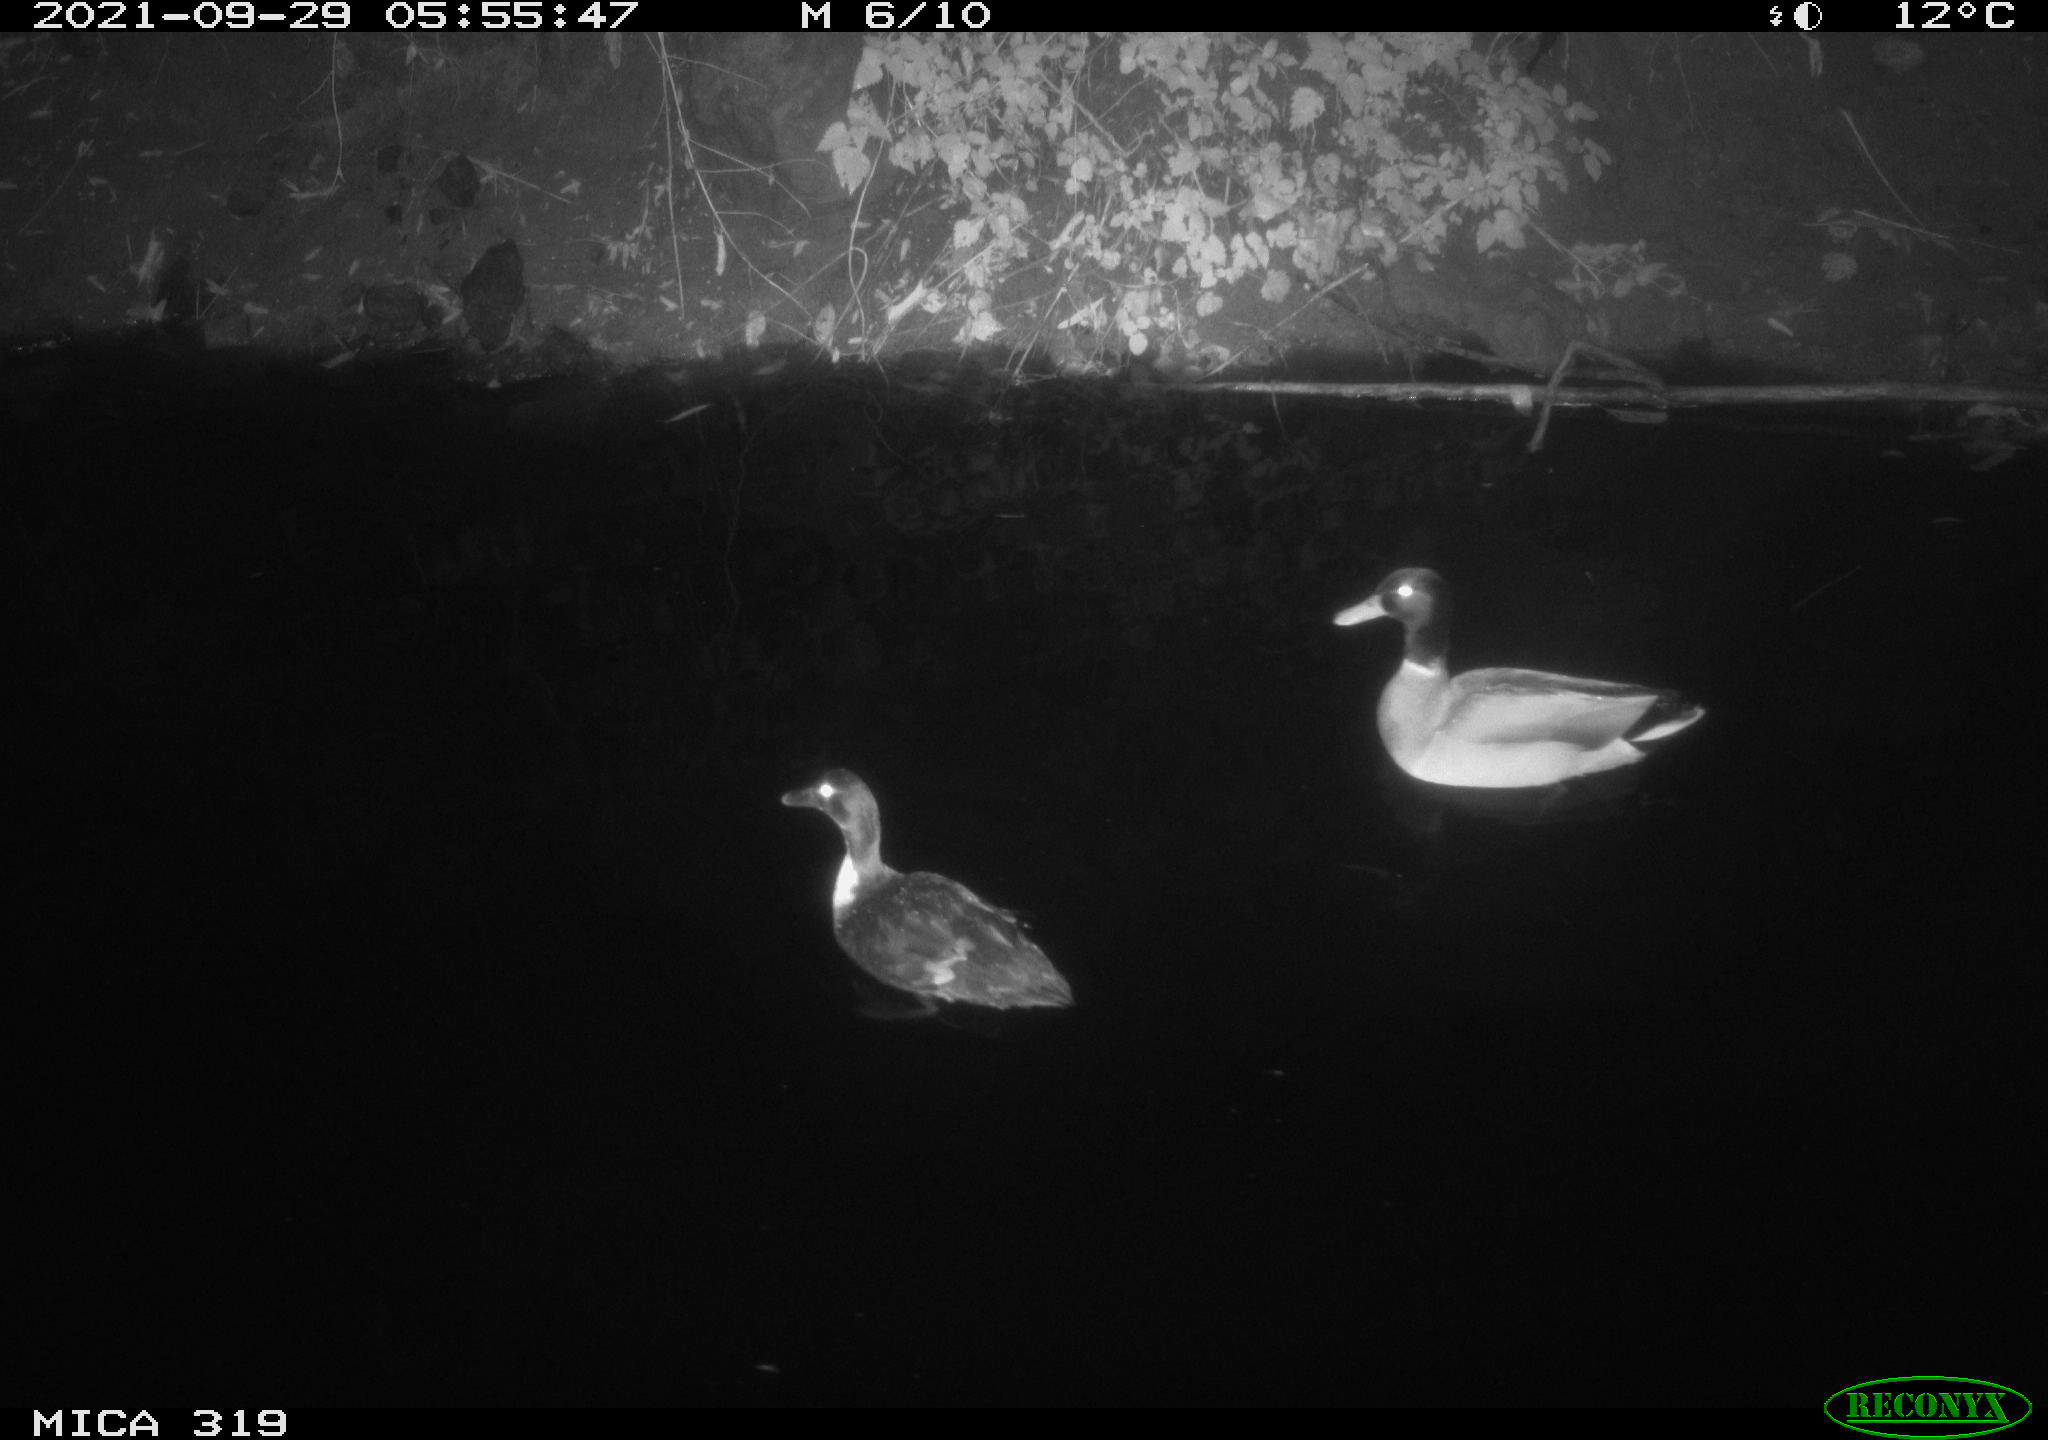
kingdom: Animalia
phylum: Chordata
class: Aves
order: Anseriformes
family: Anatidae
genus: Anas
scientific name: Anas platyrhynchos
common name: Mallard
